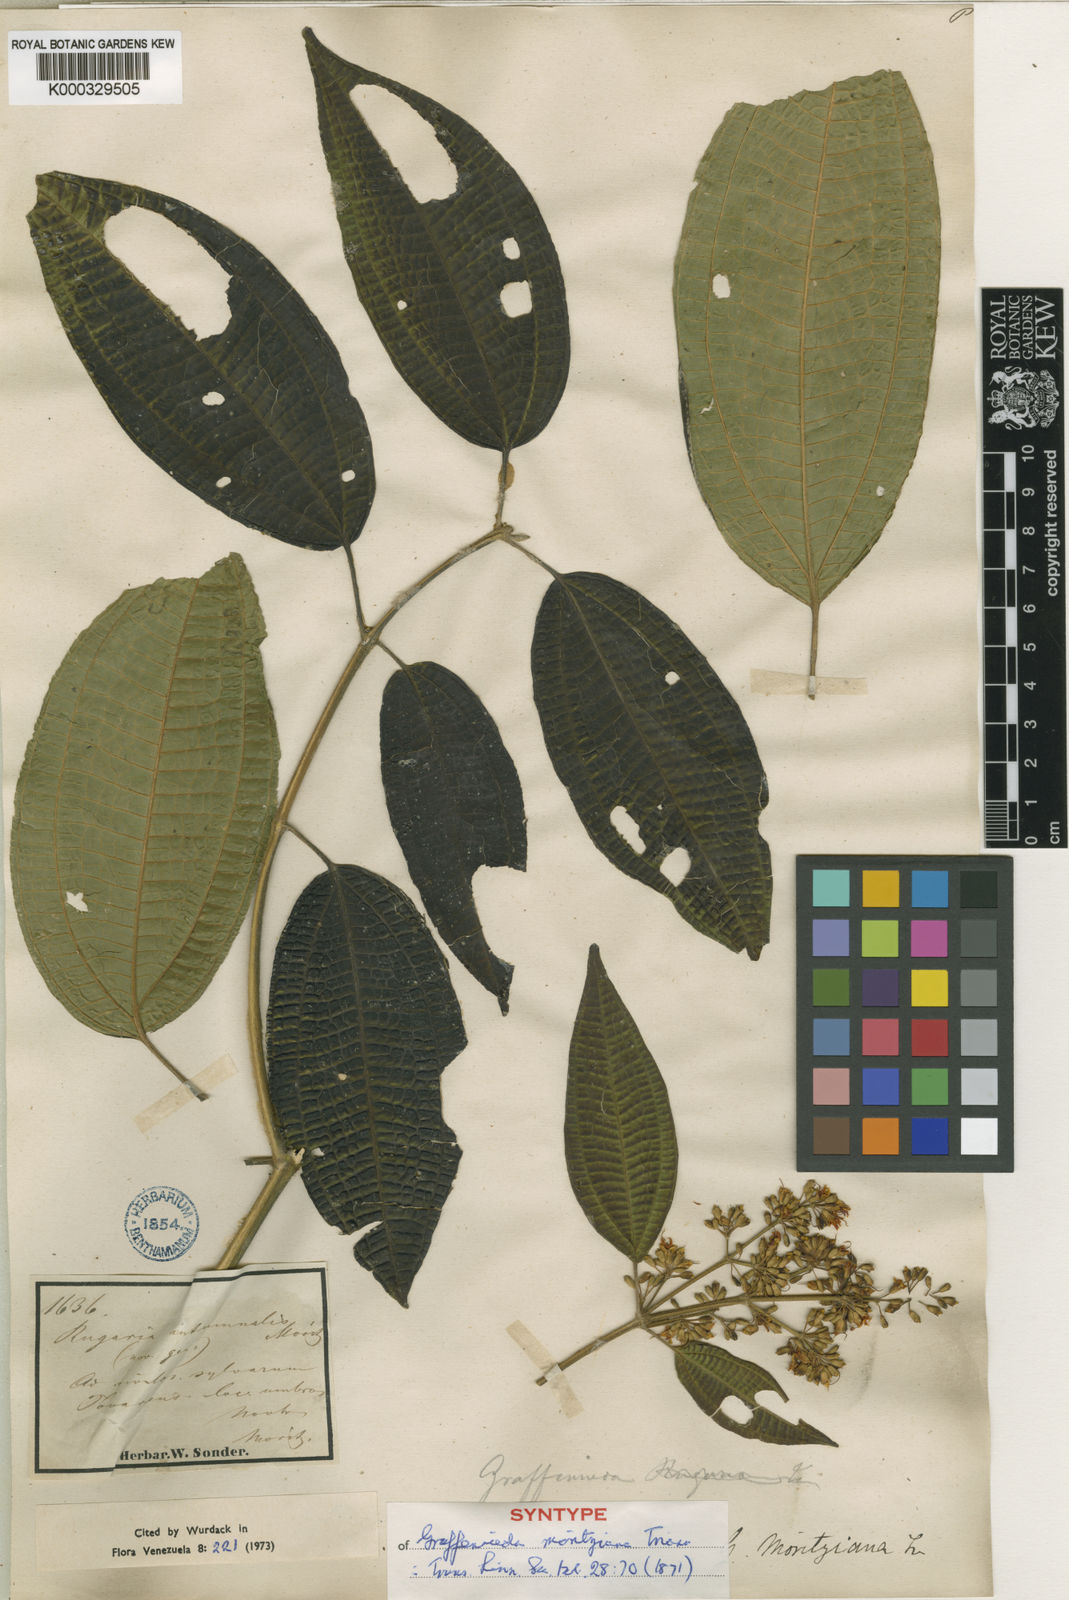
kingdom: Plantae
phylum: Tracheophyta
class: Magnoliopsida
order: Myrtales
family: Melastomataceae
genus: Graffenrieda
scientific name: Graffenrieda moritziana
